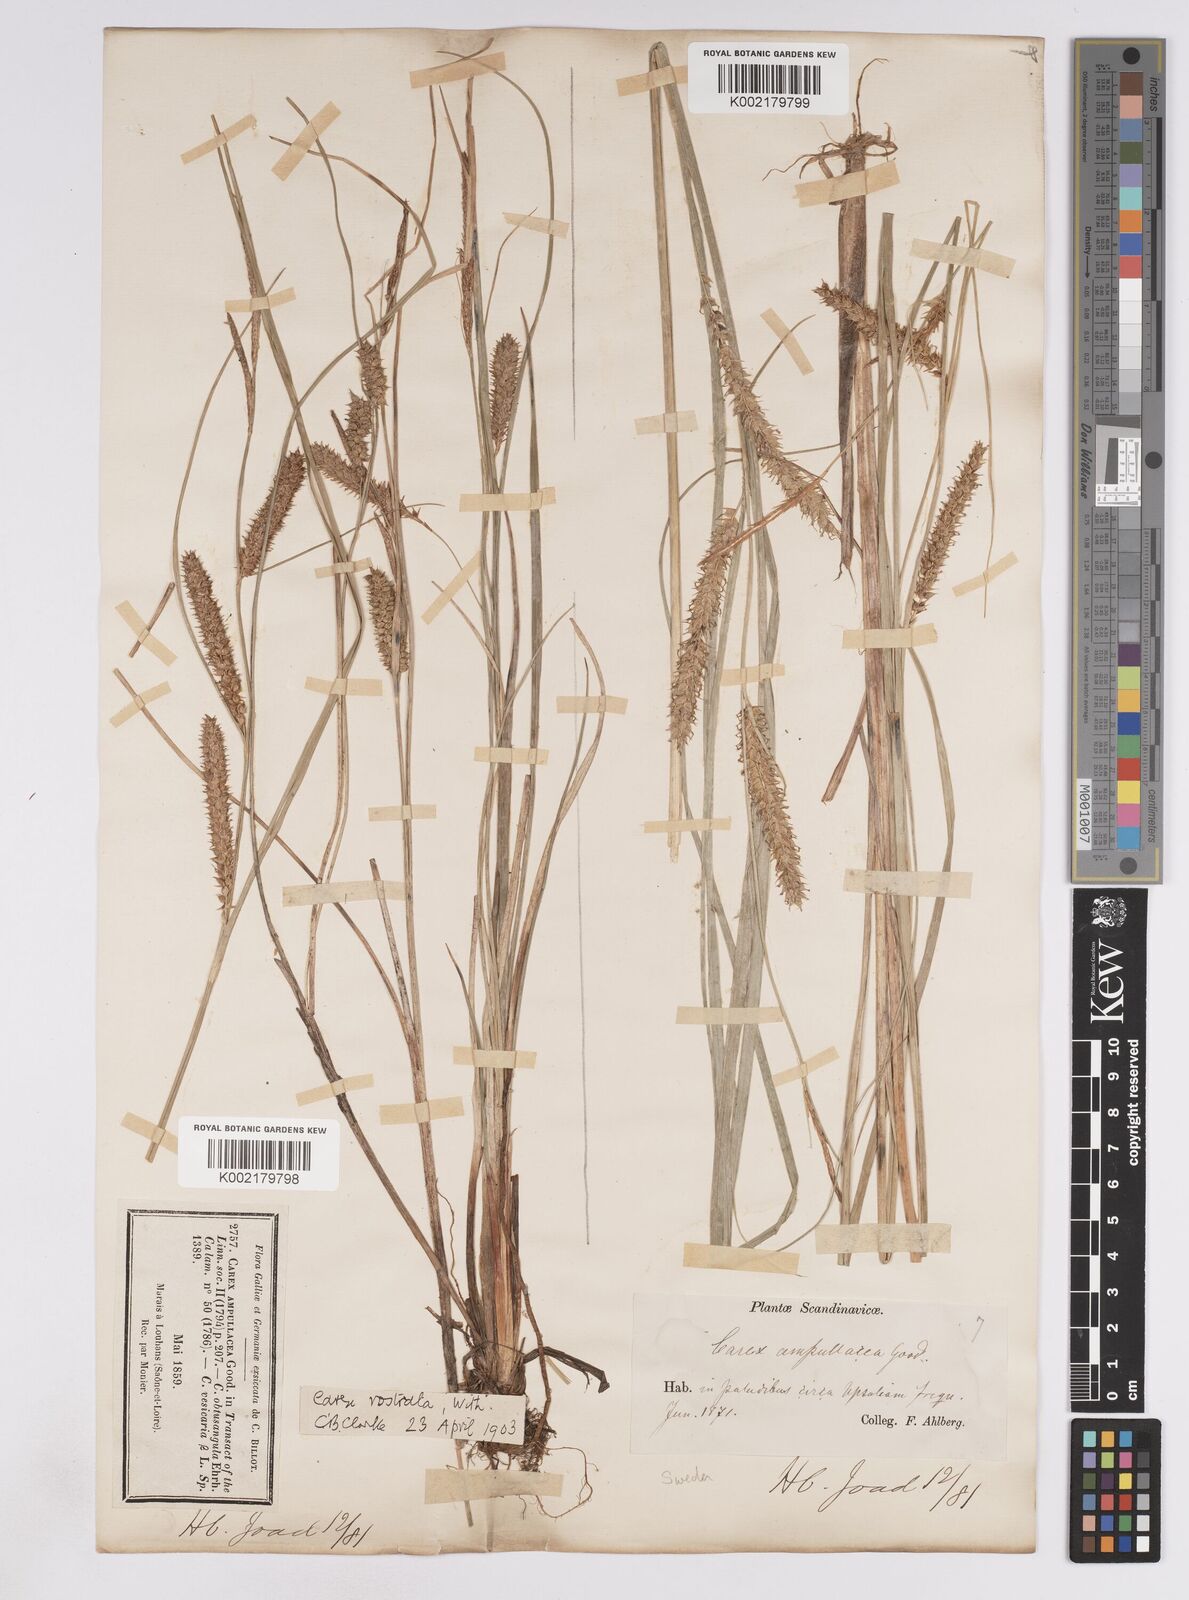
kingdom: Plantae
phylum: Tracheophyta
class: Liliopsida
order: Poales
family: Cyperaceae
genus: Carex
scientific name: Carex rostrata
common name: Bottle sedge
